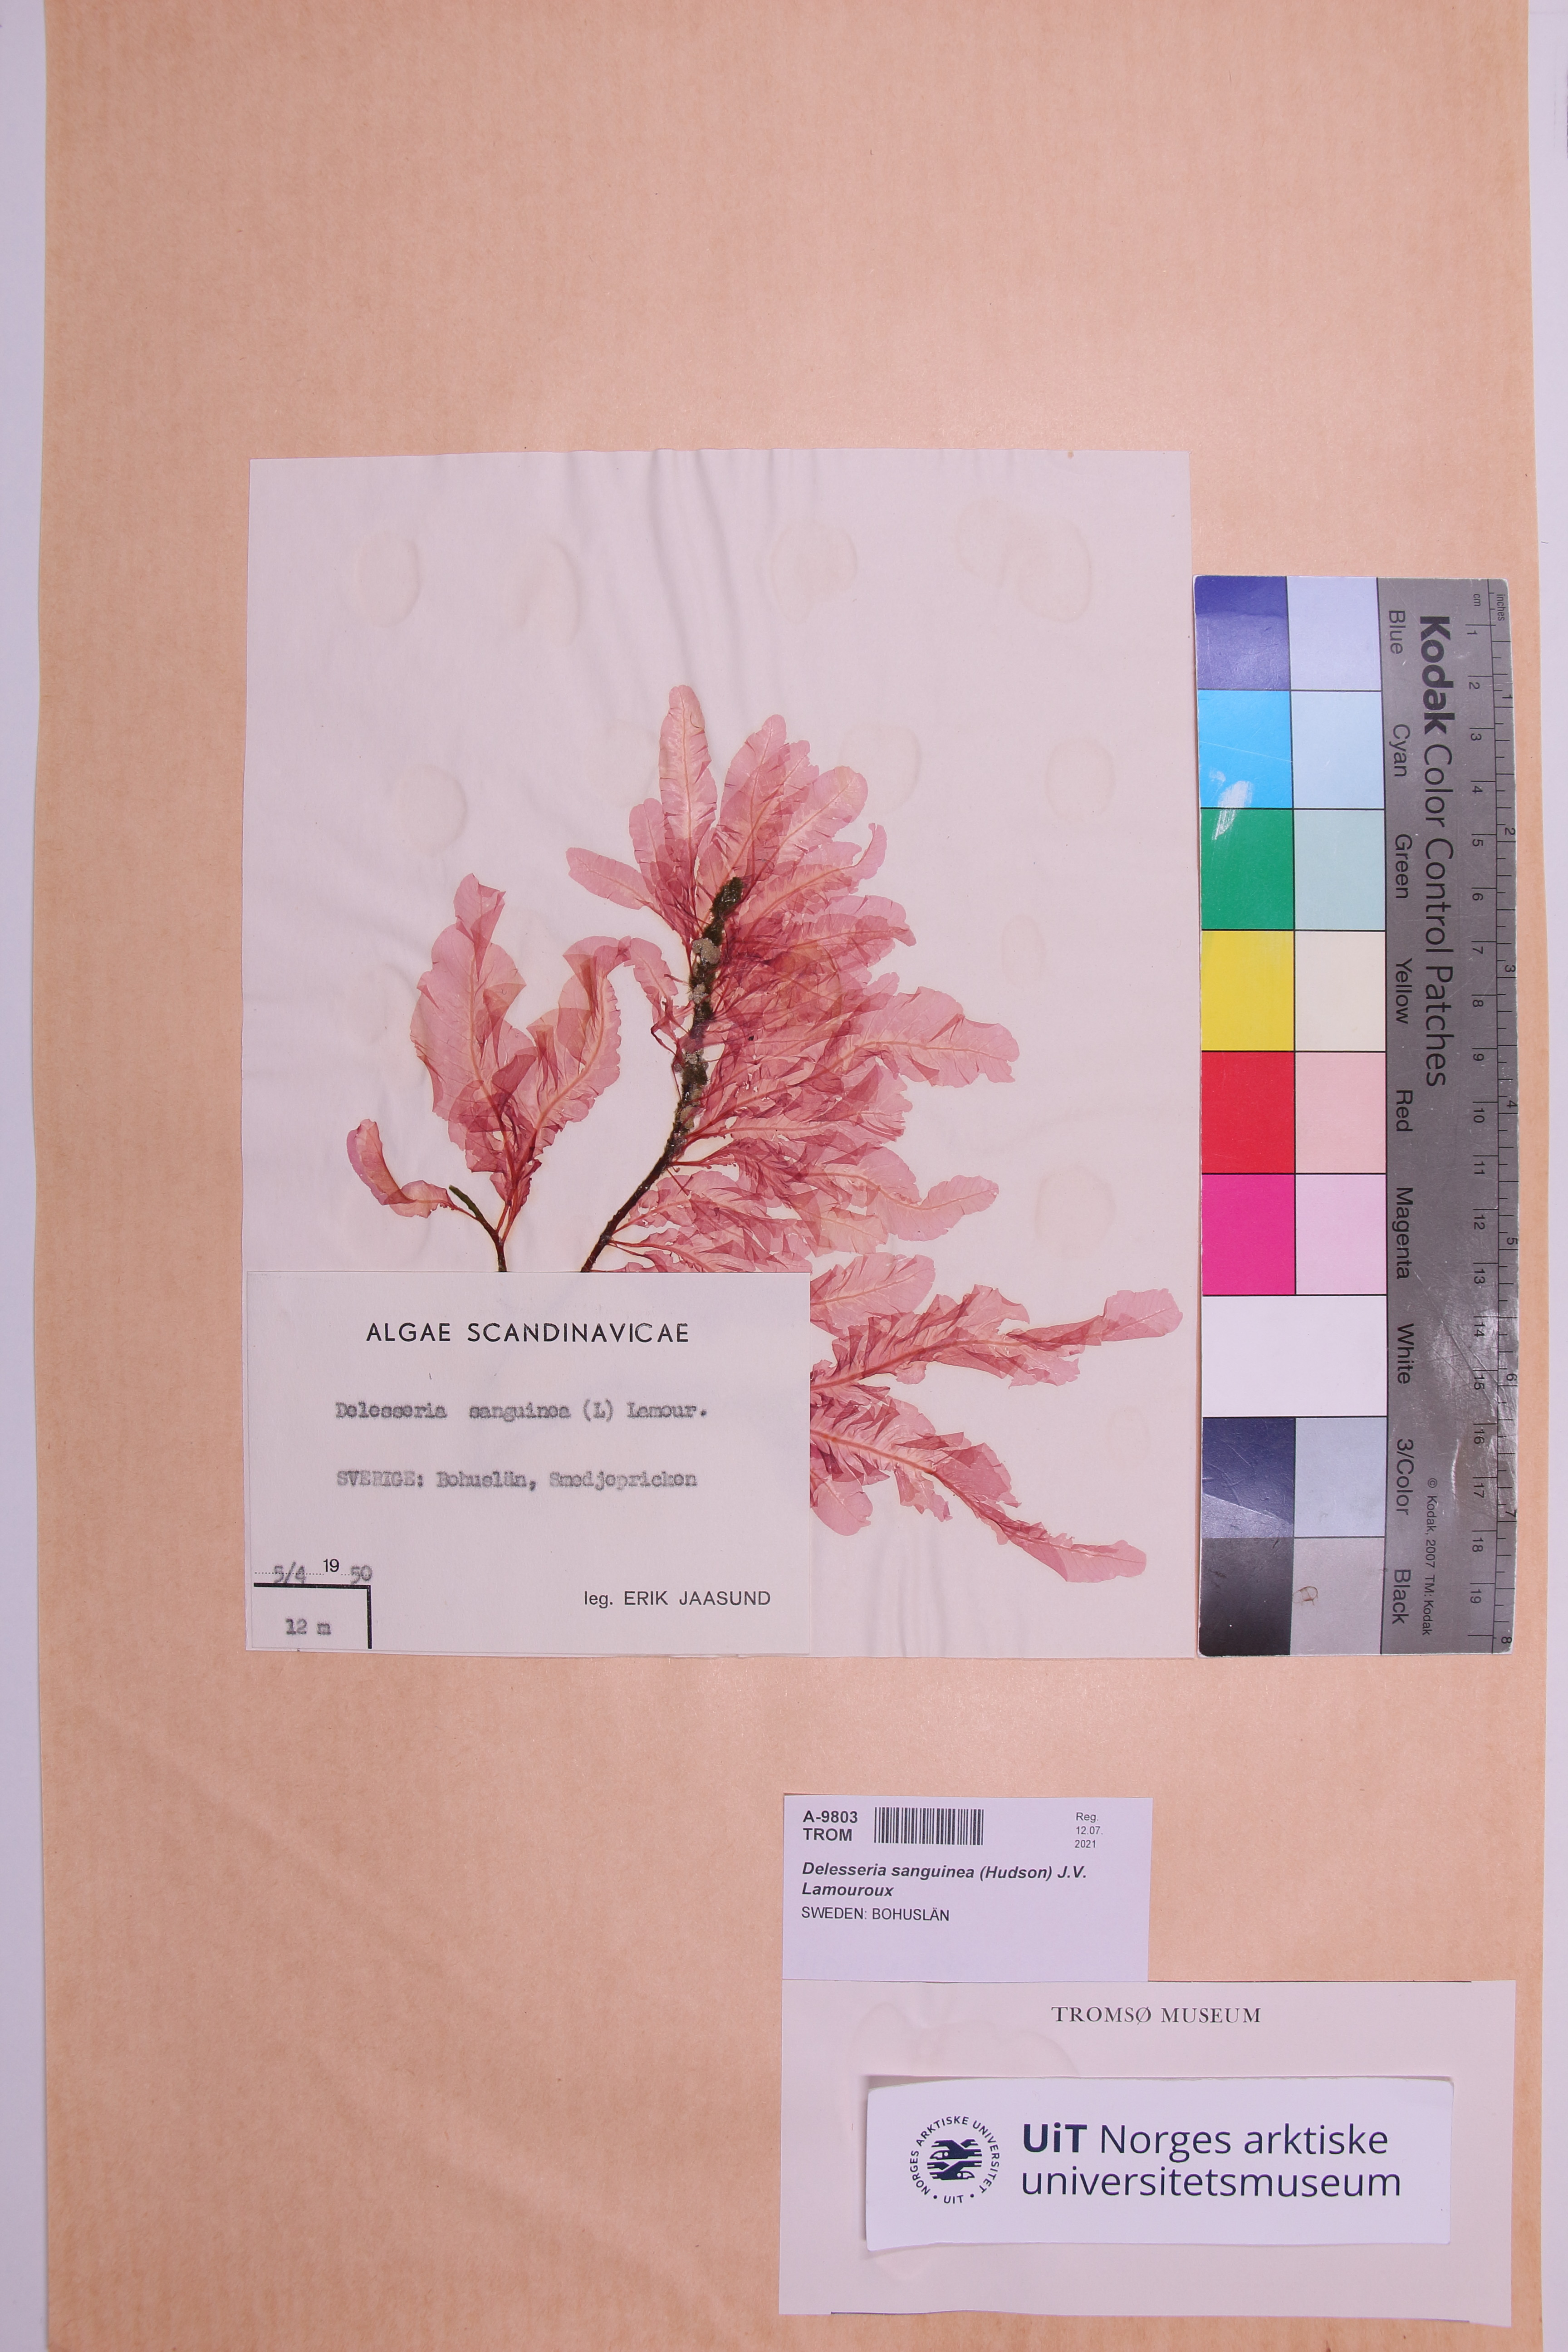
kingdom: Plantae
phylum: Rhodophyta
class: Florideophyceae
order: Ceramiales
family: Delesseriaceae
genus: Delesseria
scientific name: Delesseria sanguinea
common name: Sea beech
